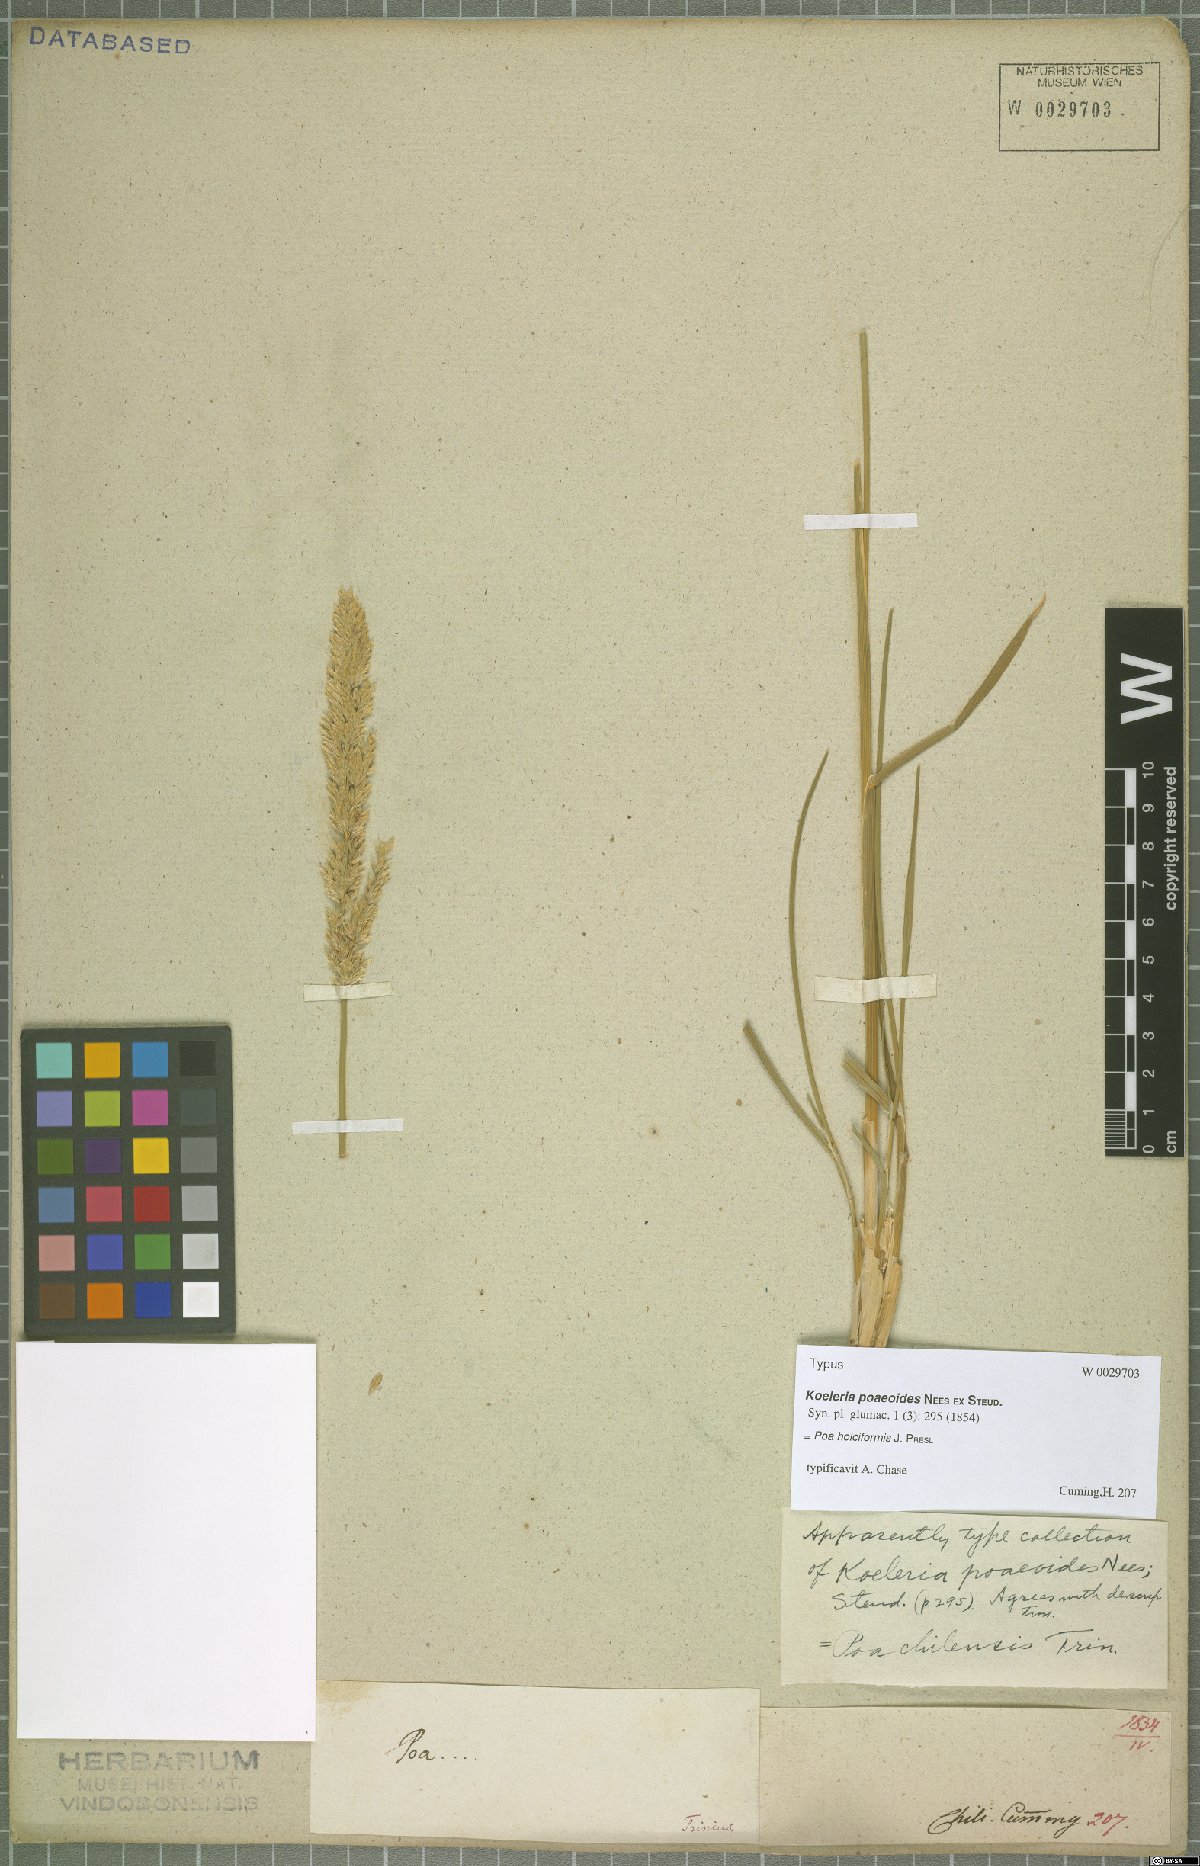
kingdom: Plantae
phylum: Tracheophyta
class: Liliopsida
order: Poales
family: Poaceae
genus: Poa
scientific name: Poa holciformis
